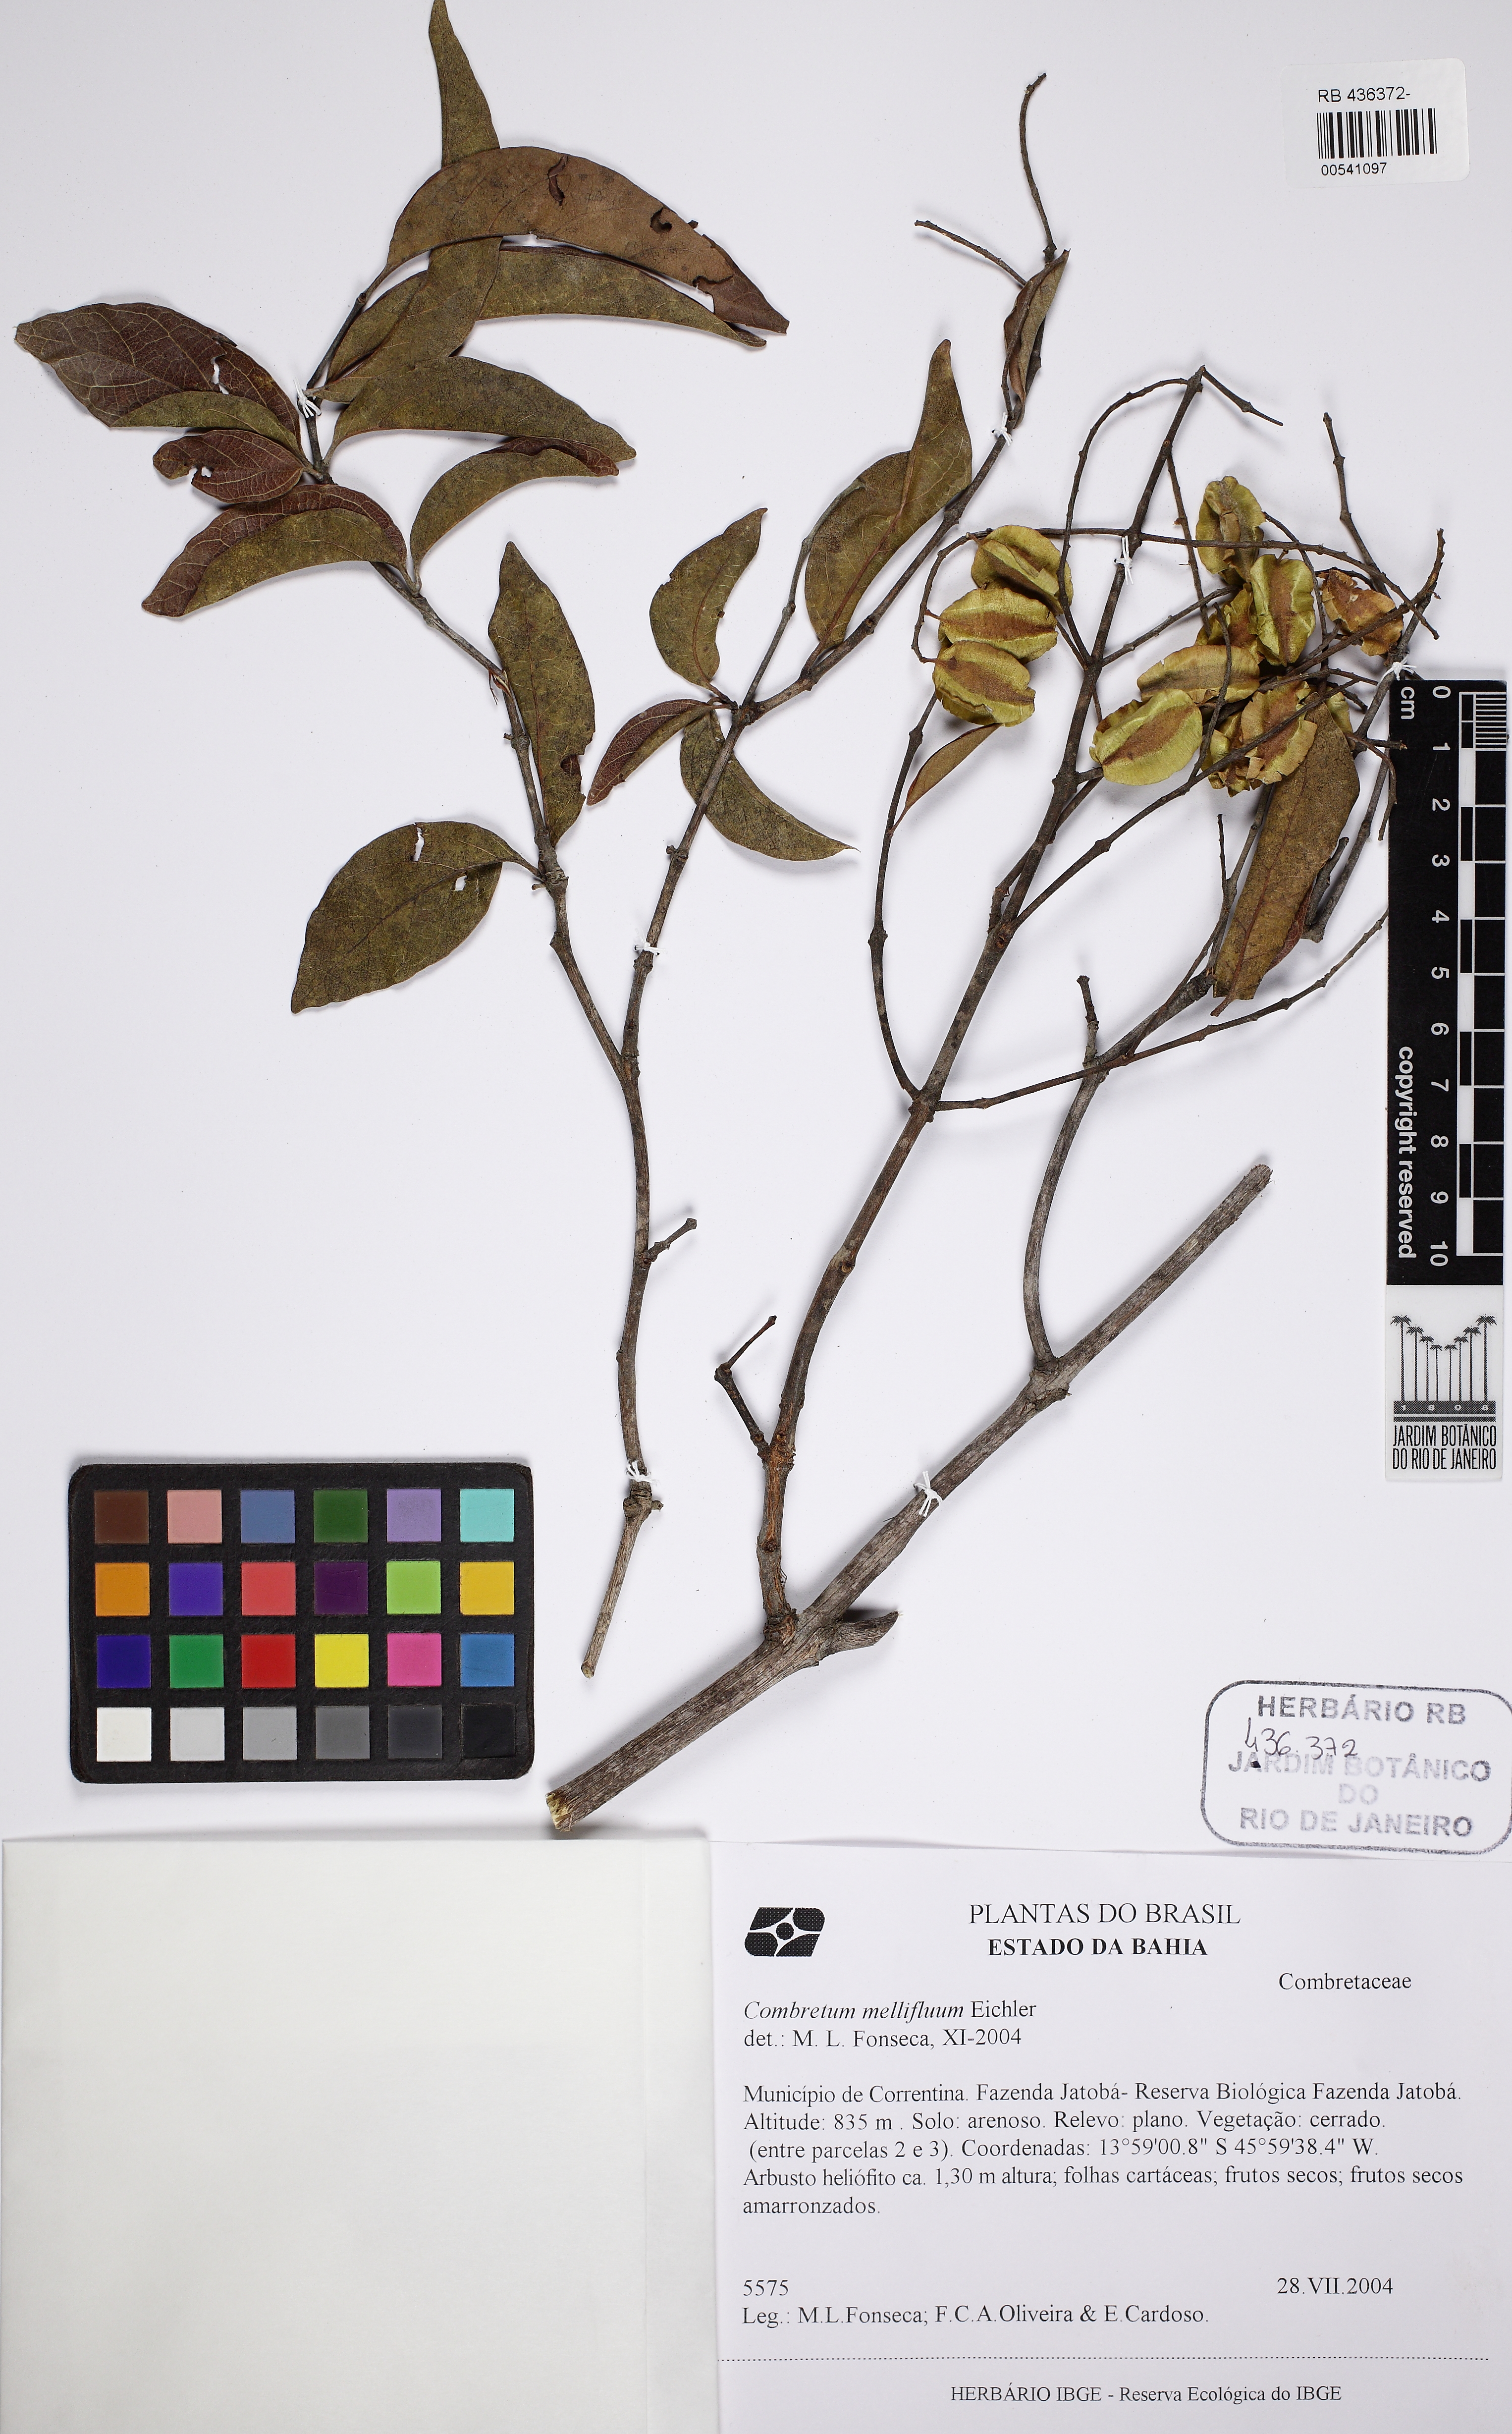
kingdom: Plantae
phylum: Tracheophyta
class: Magnoliopsida
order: Myrtales
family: Combretaceae
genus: Combretum
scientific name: Combretum mellifluum
